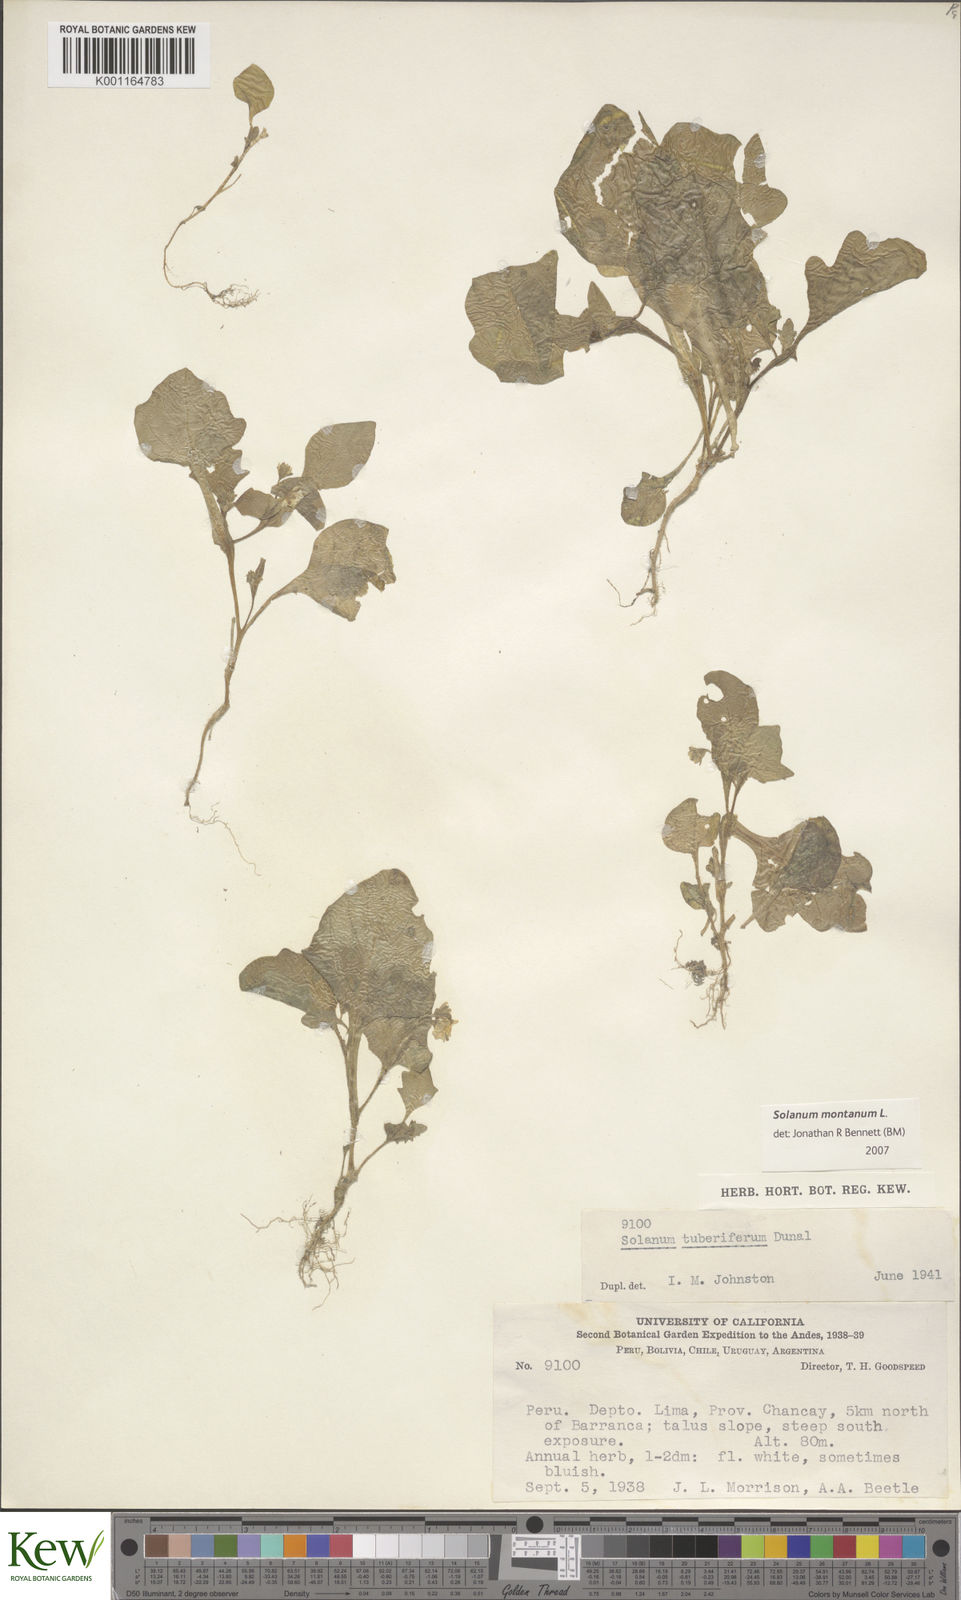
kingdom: Plantae
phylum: Tracheophyta
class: Magnoliopsida
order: Solanales
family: Solanaceae
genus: Solanum
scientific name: Solanum montanum
